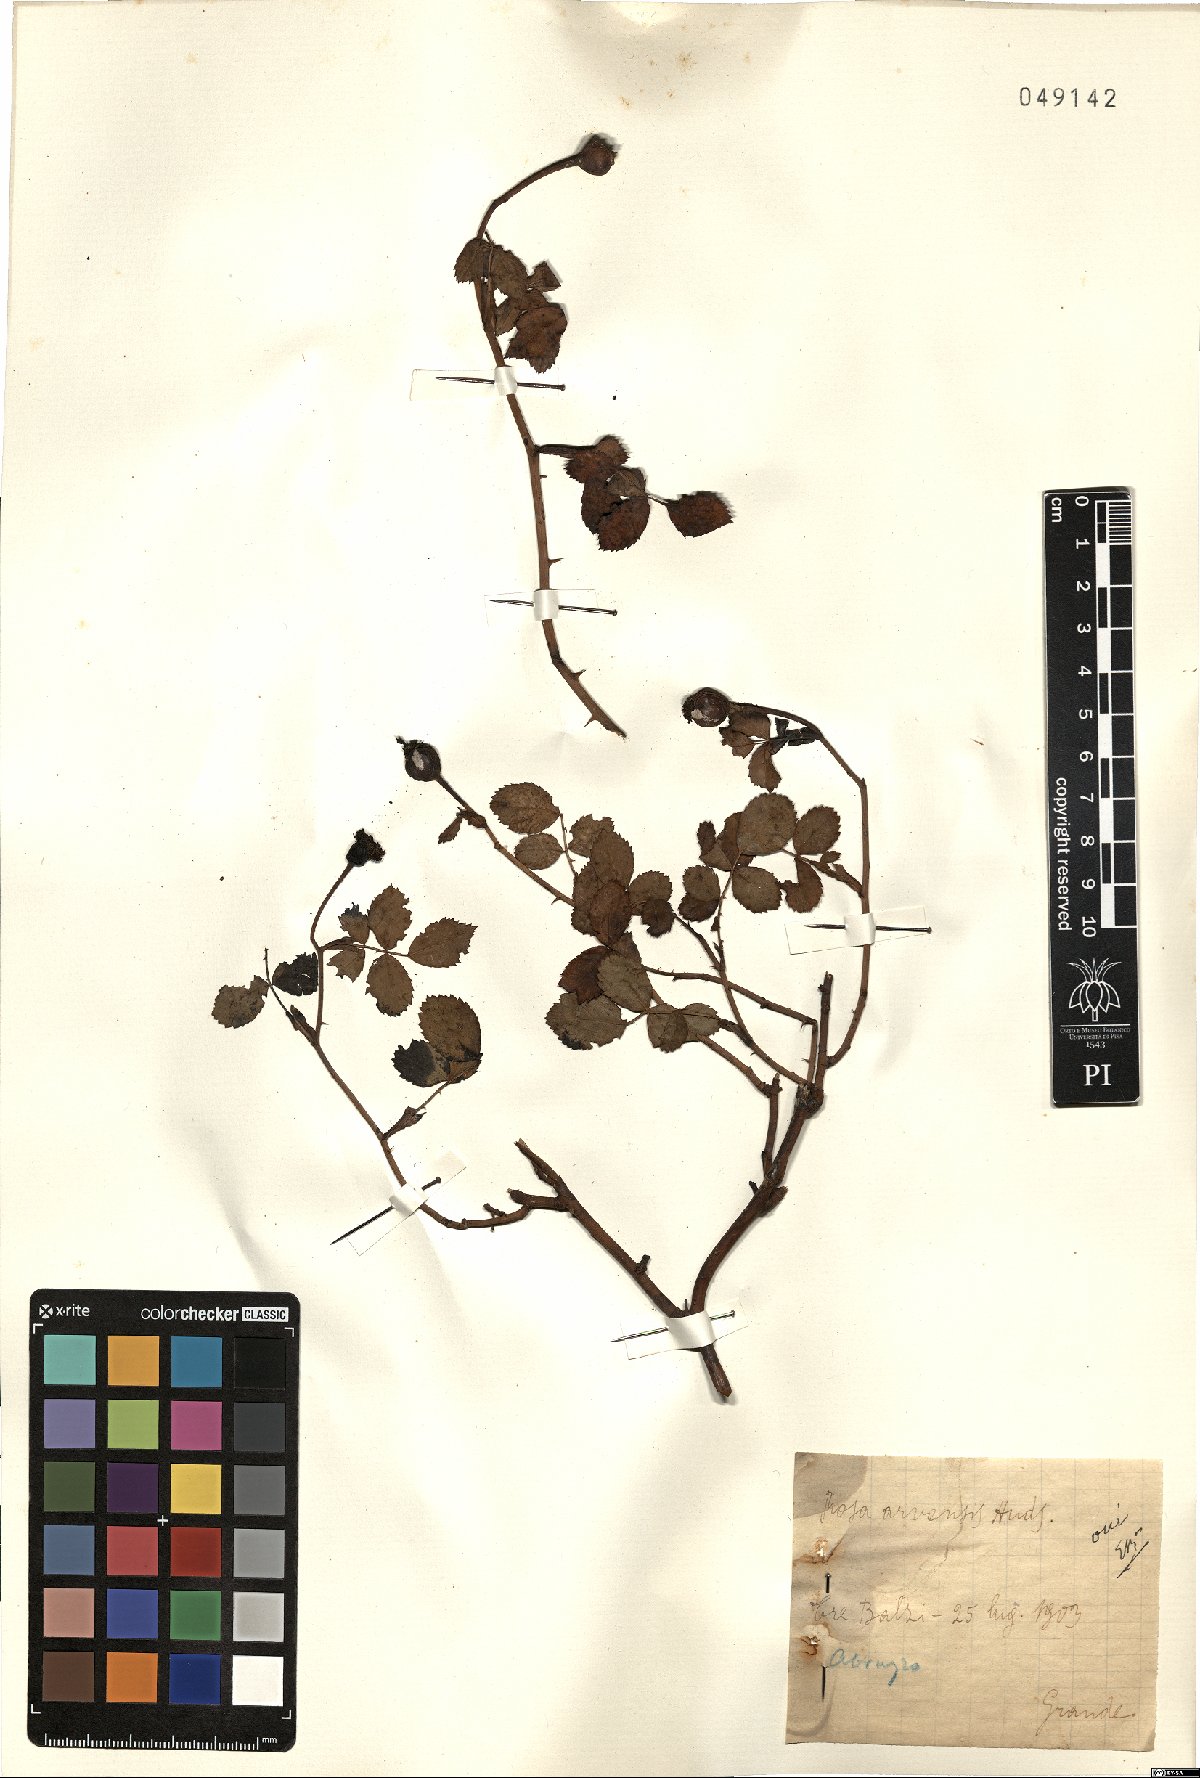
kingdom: Plantae
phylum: Tracheophyta
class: Magnoliopsida
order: Rosales
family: Rosaceae
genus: Rosa
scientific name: Rosa arvensis
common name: Field rose
